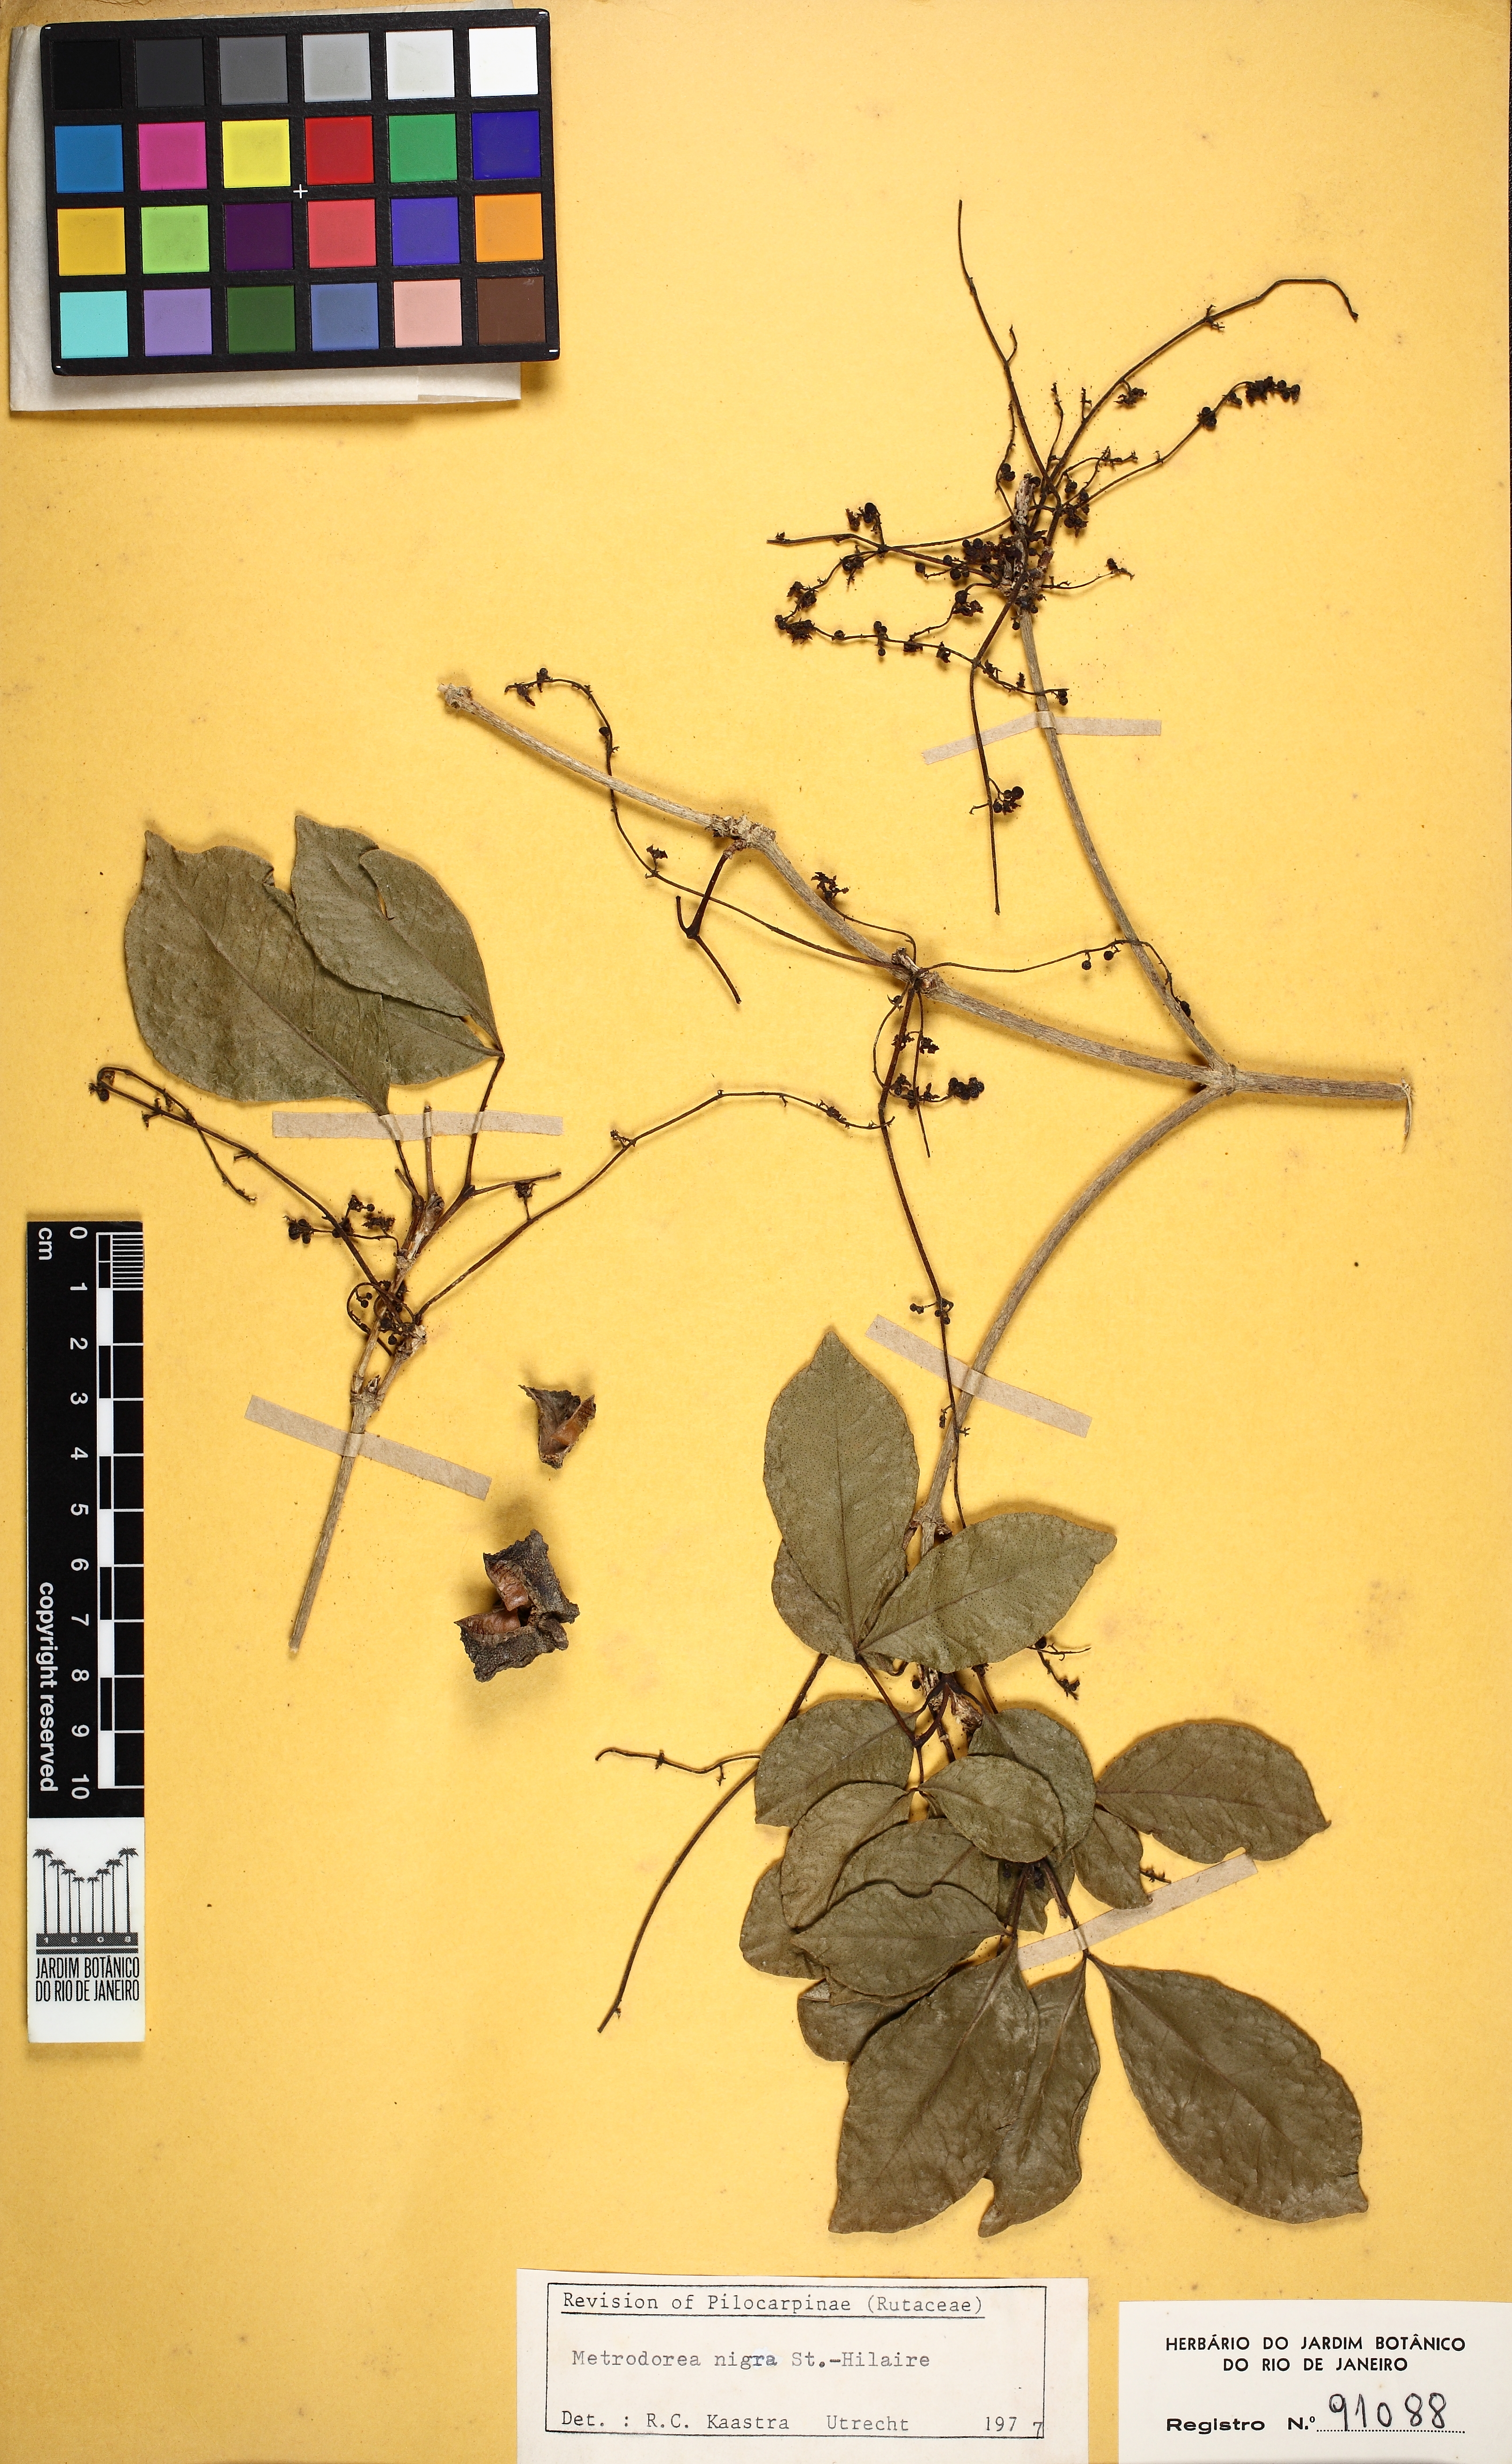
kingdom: Plantae
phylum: Tracheophyta
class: Magnoliopsida
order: Sapindales
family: Rutaceae
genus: Metrodorea
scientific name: Metrodorea nigra
